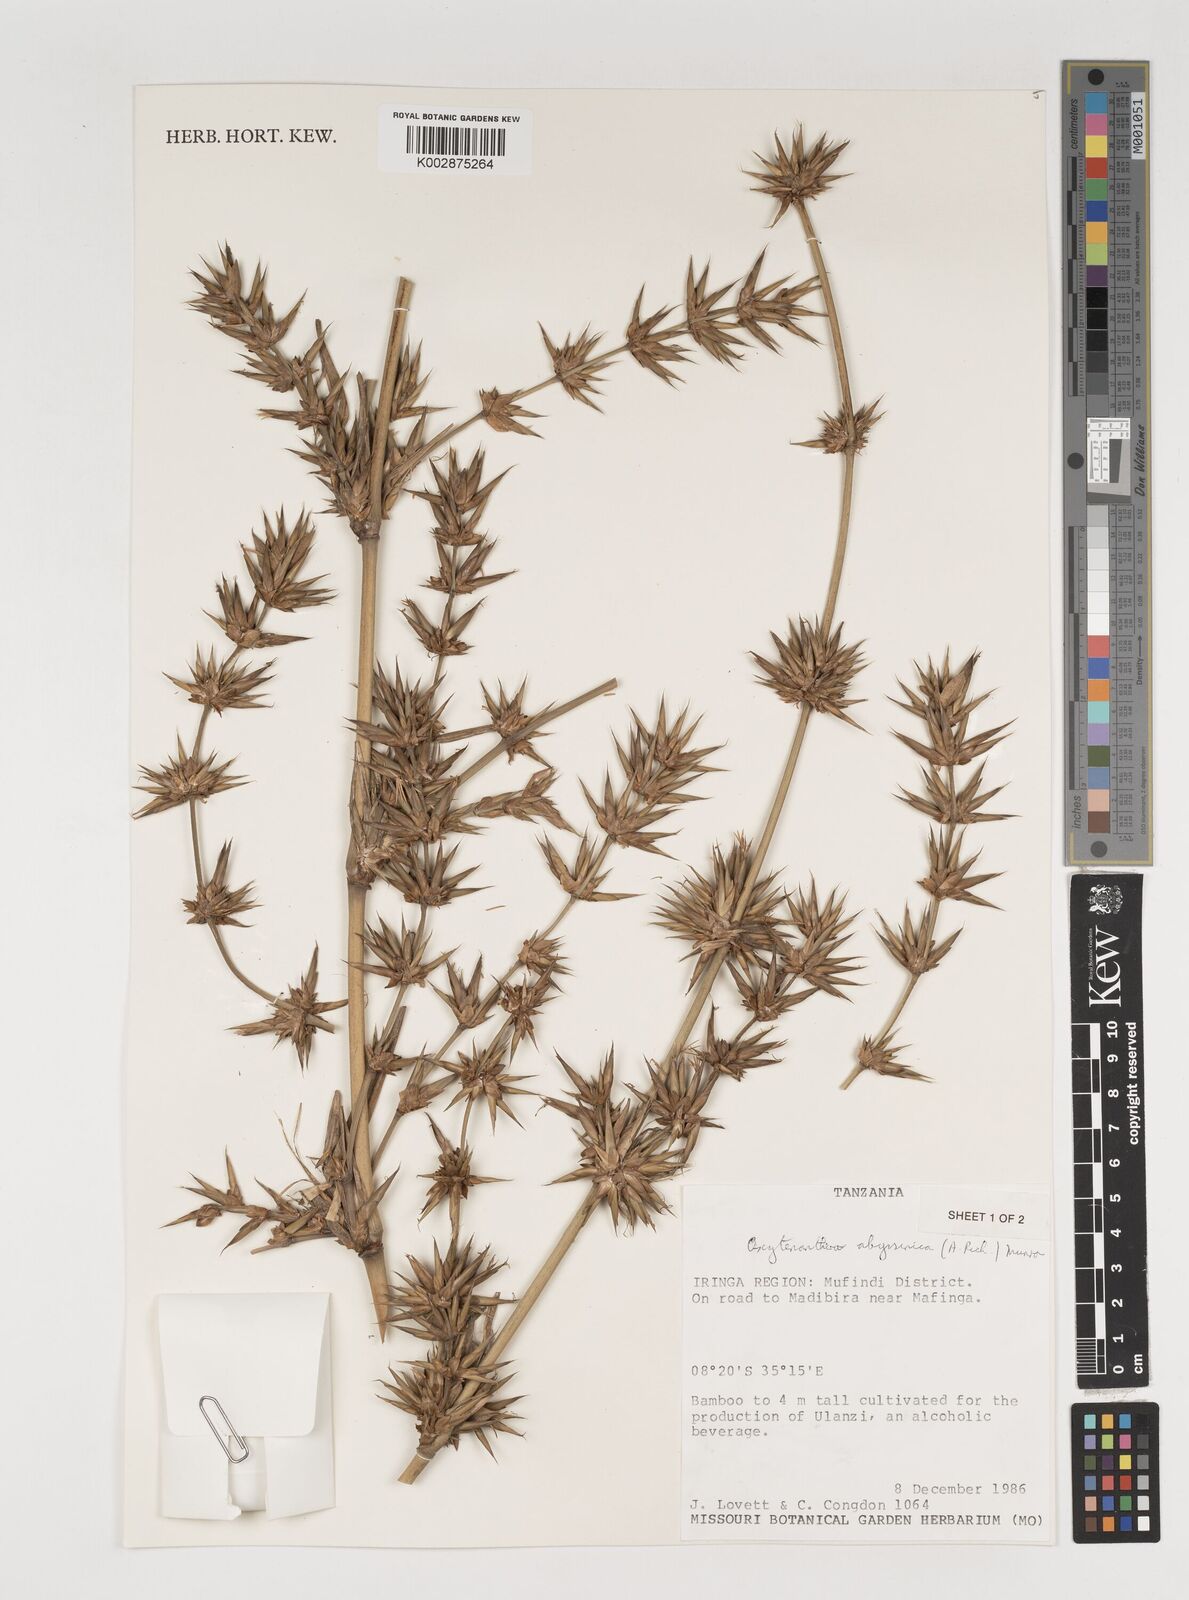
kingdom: Plantae
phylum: Tracheophyta
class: Liliopsida
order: Poales
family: Poaceae
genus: Oxytenanthera
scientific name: Oxytenanthera
